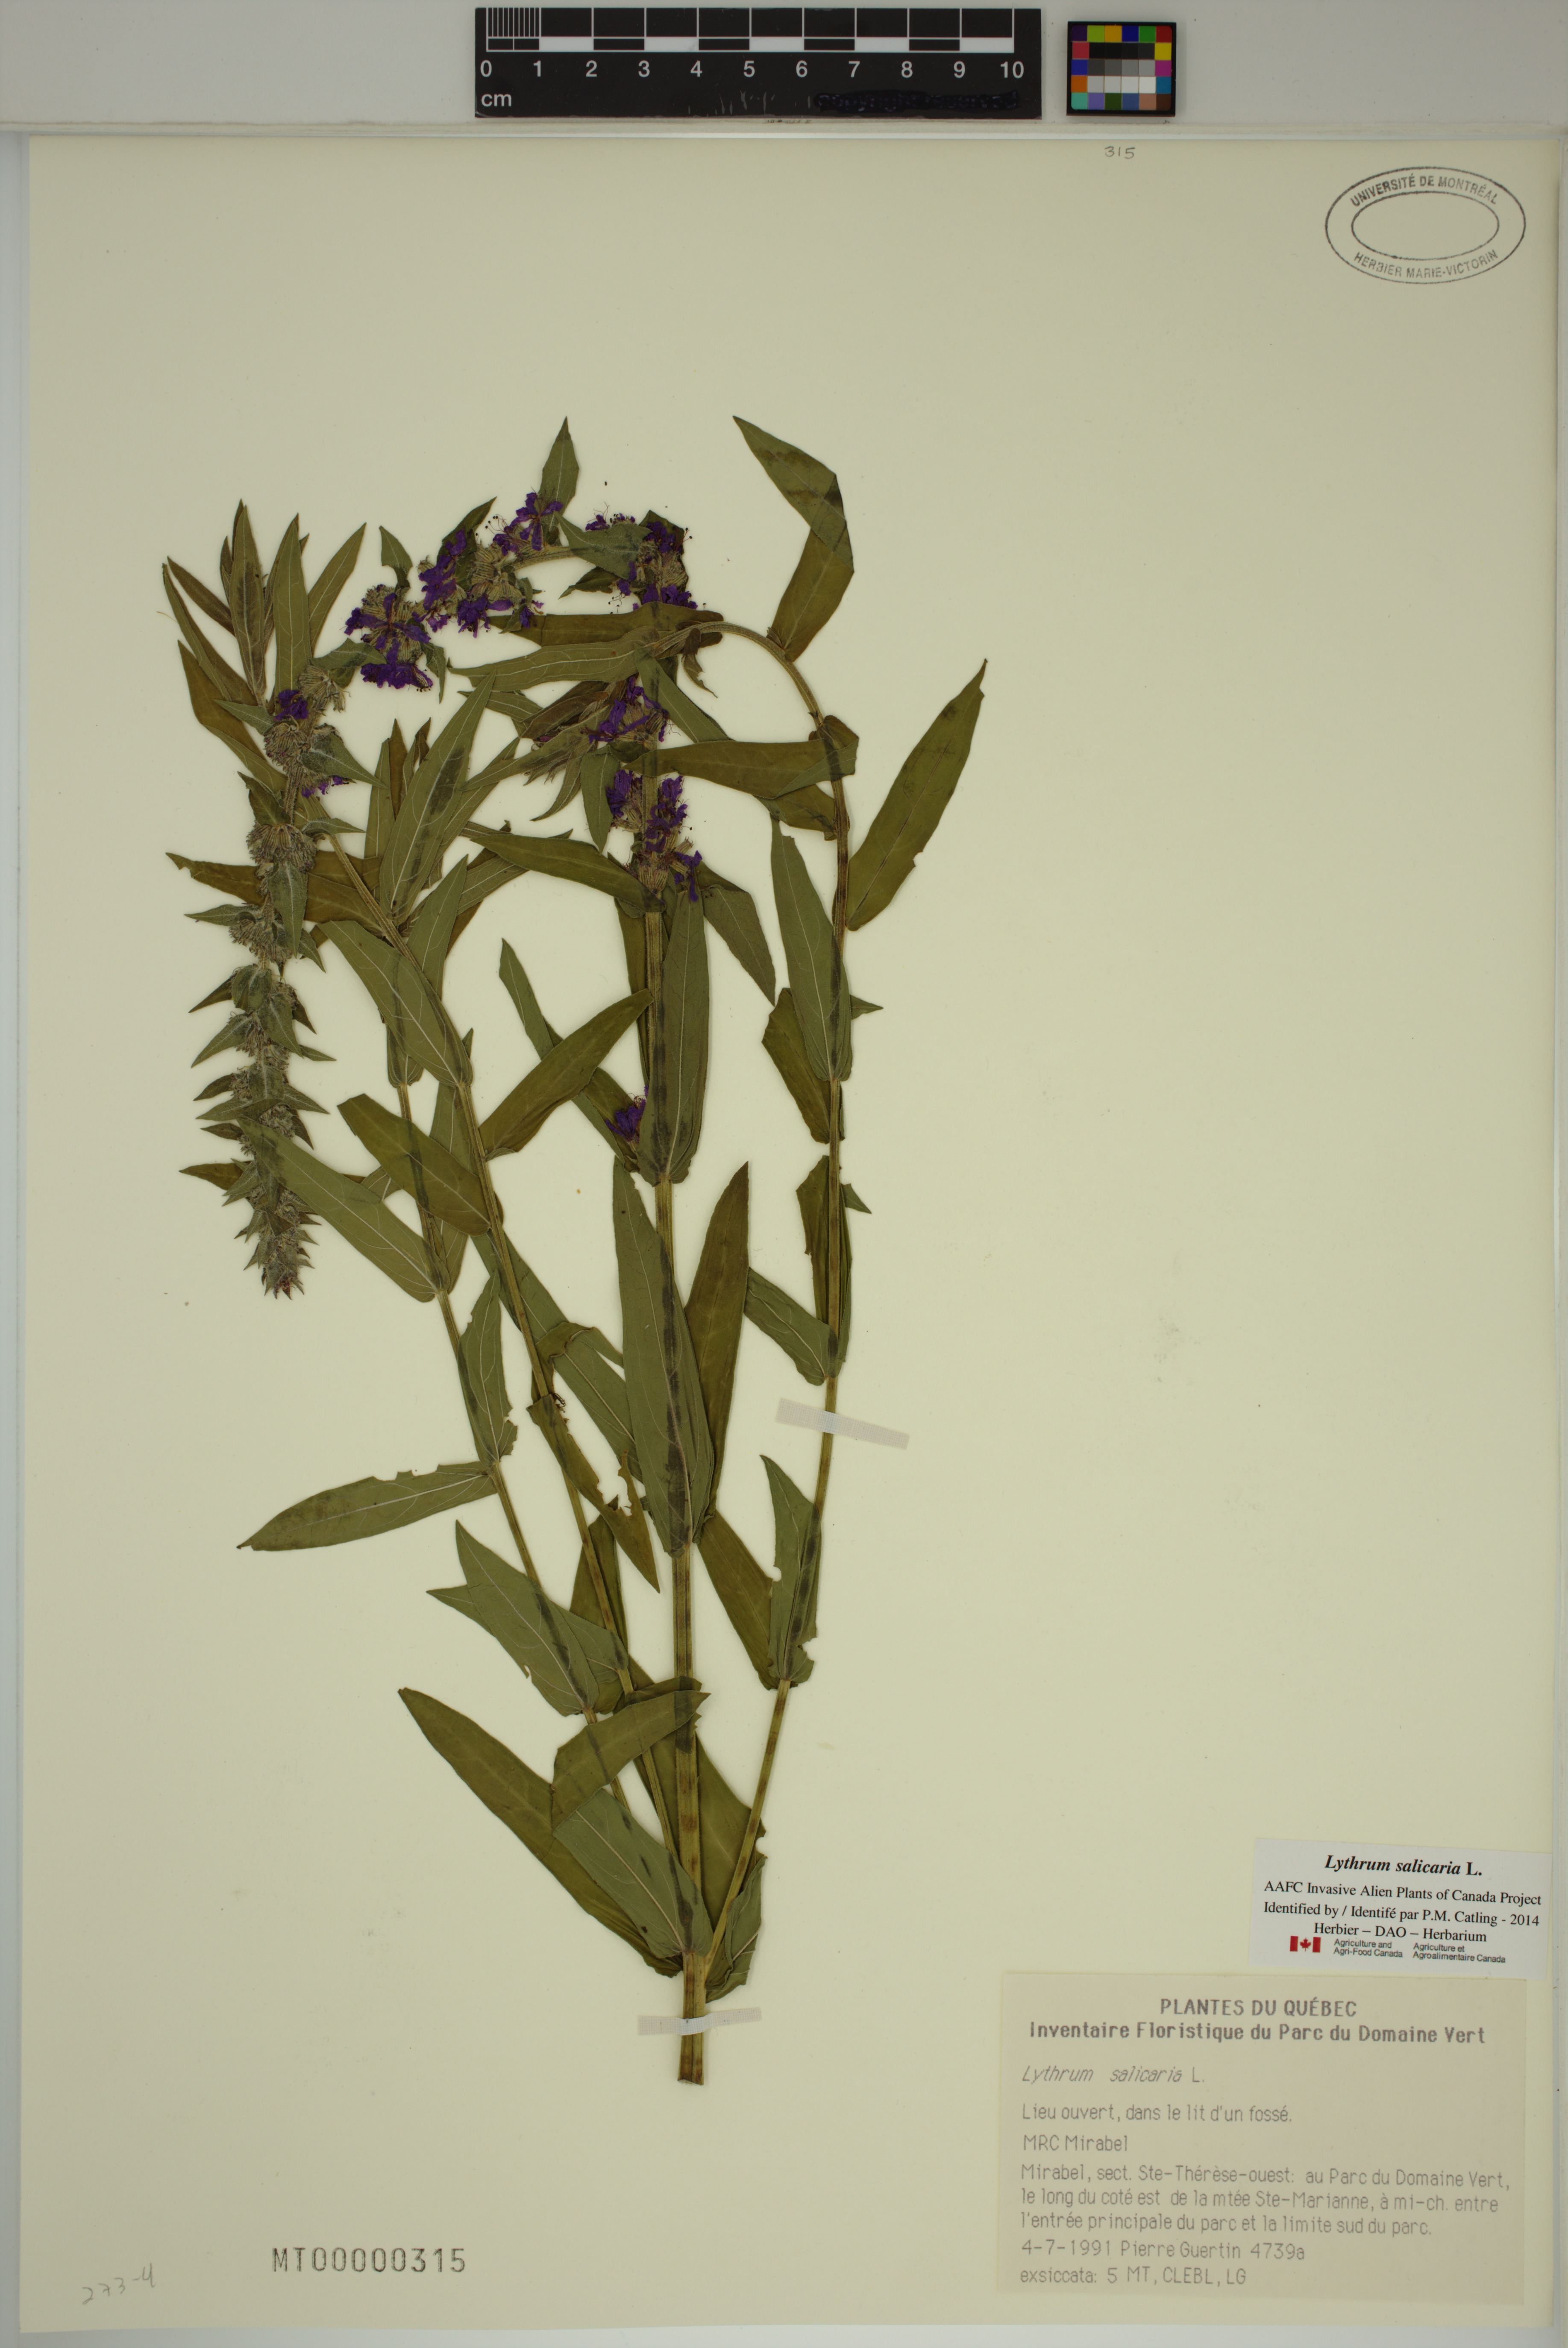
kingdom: Plantae
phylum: Tracheophyta
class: Magnoliopsida
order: Myrtales
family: Lythraceae
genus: Lythrum
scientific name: Lythrum salicaria
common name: Purple loosestrife
